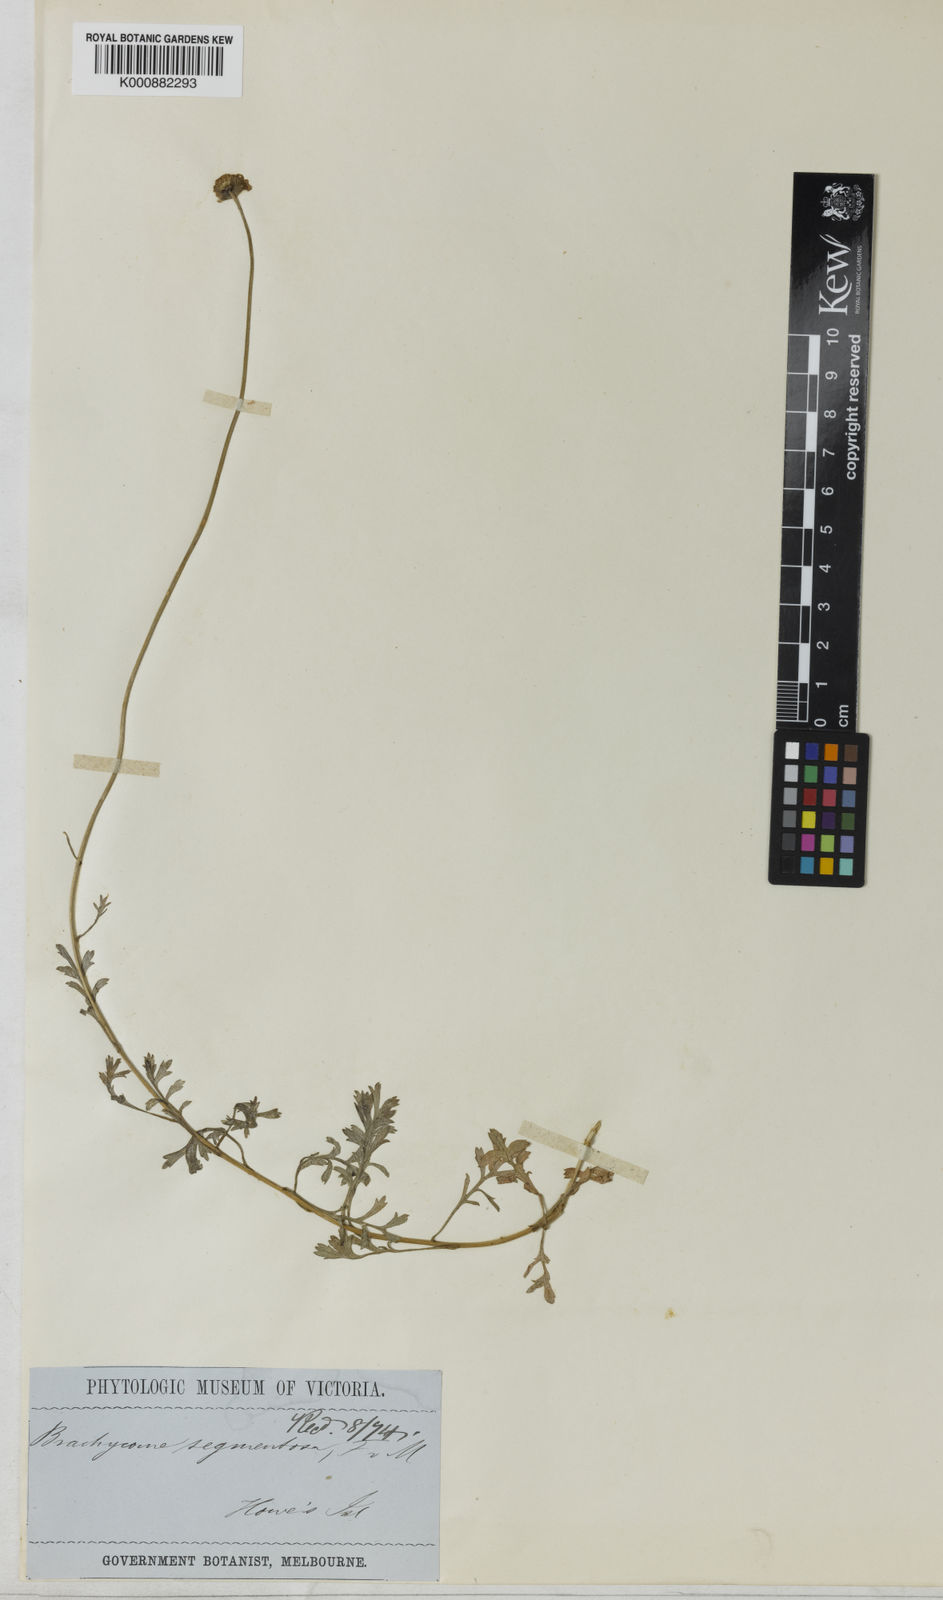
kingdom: Plantae
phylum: Tracheophyta
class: Magnoliopsida
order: Asterales
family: Asteraceae
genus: Brachyscome
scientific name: Brachyscome segmentosa
